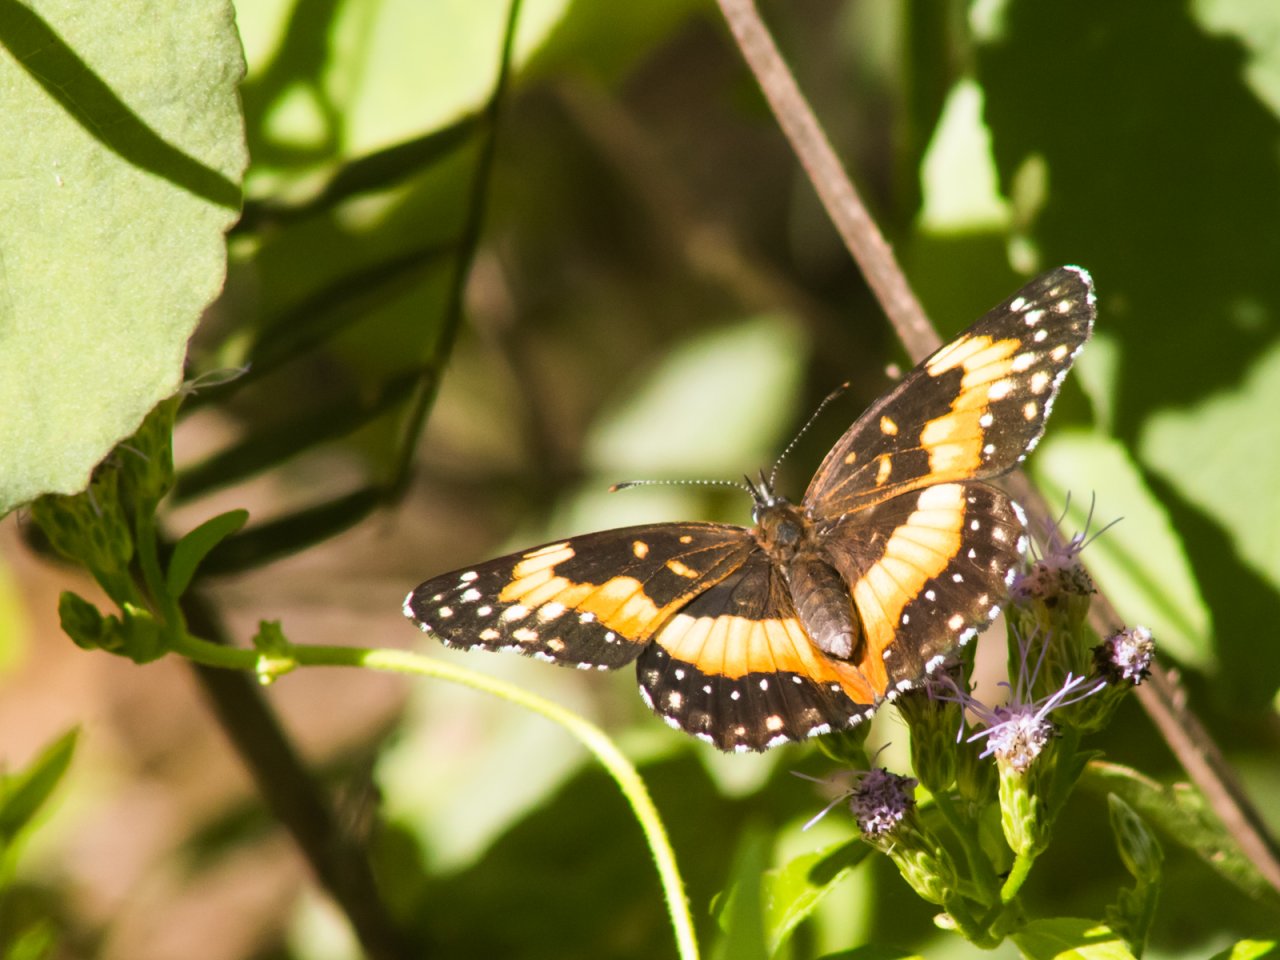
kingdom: Animalia
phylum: Arthropoda
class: Insecta
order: Lepidoptera
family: Nymphalidae
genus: Chlosyne
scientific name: Chlosyne lacinia
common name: Bordered Patch
